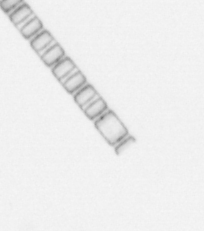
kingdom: Chromista
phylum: Ochrophyta
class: Bacillariophyceae
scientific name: Bacillariophyceae
